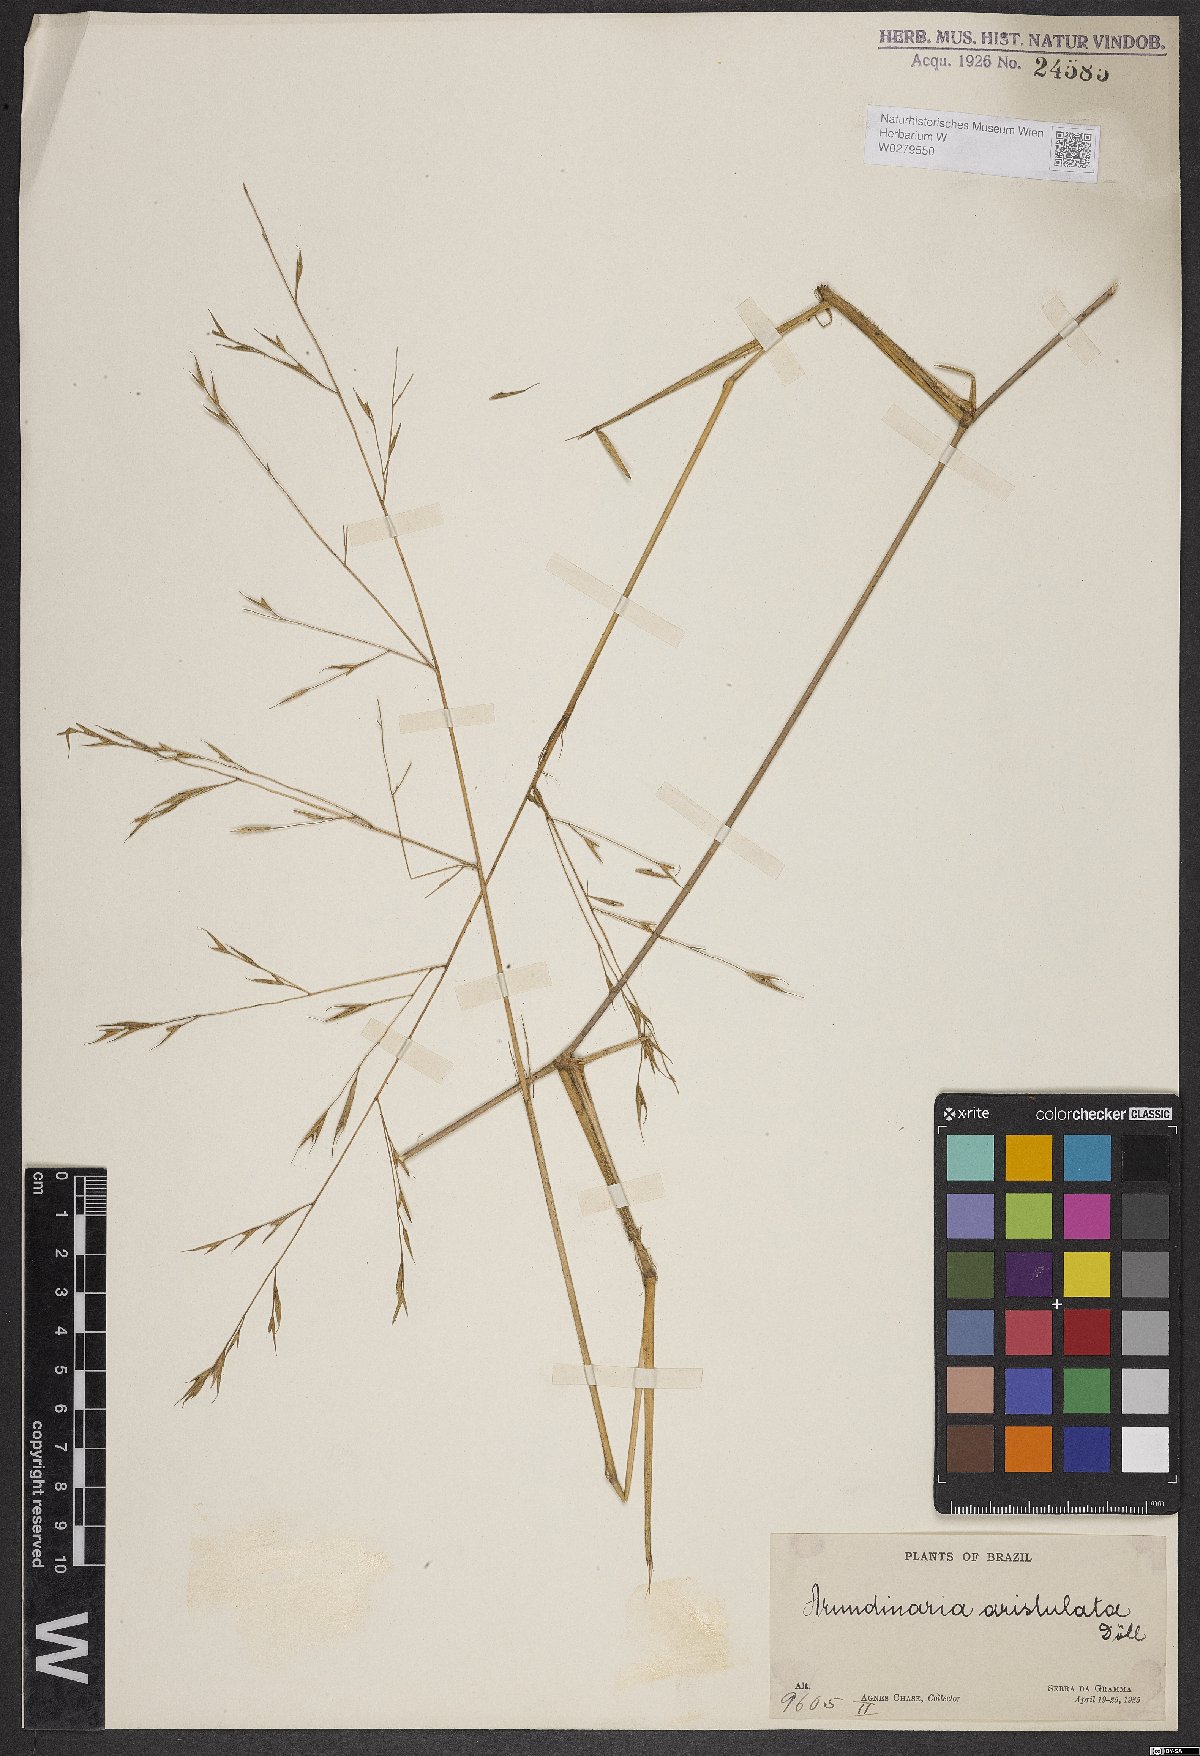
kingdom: Plantae
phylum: Tracheophyta
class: Liliopsida
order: Poales
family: Poaceae
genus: Aulonemia
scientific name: Aulonemia aristulata
